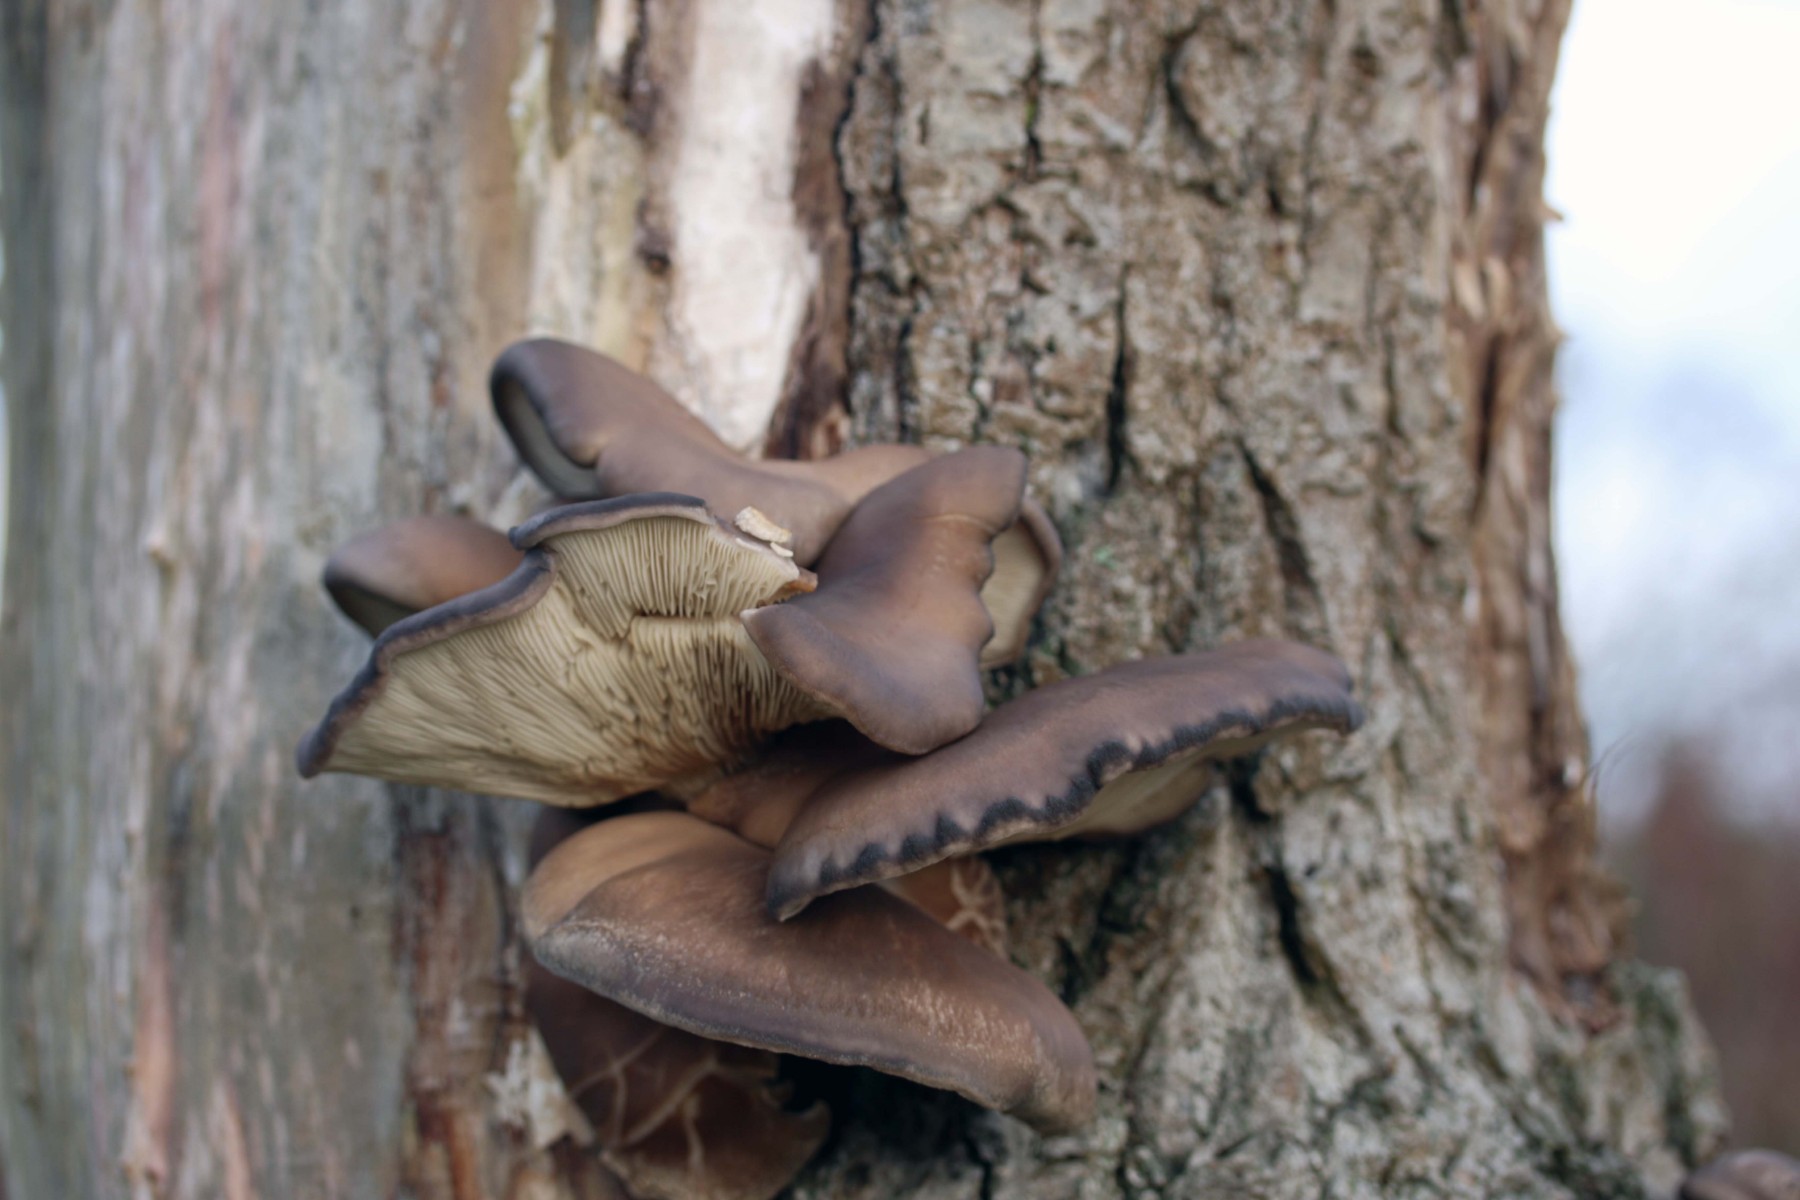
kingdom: Fungi
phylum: Basidiomycota
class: Agaricomycetes
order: Agaricales
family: Pleurotaceae
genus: Pleurotus
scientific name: Pleurotus ostreatus
